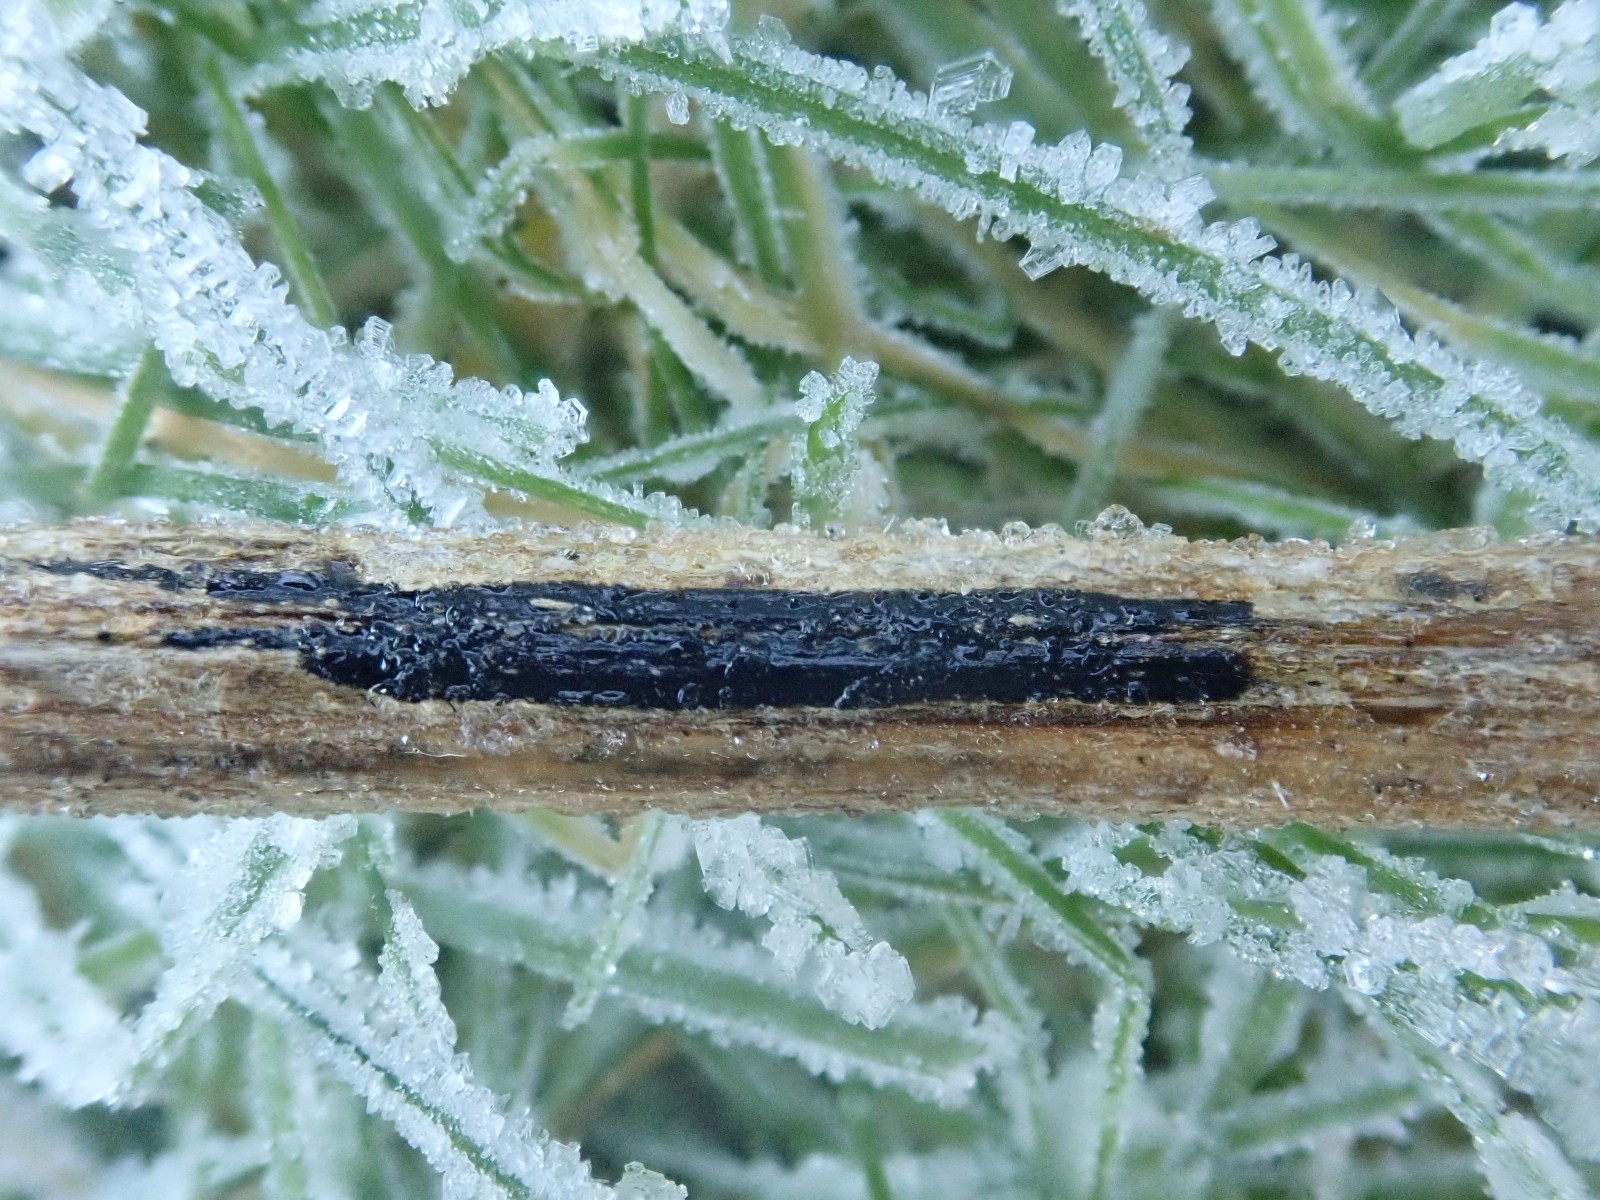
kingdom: Fungi
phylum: Ascomycota
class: Sordariomycetes
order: Diaporthales
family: Diaporthaceae
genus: Diaporthopsis
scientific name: Diaporthopsis urticae
